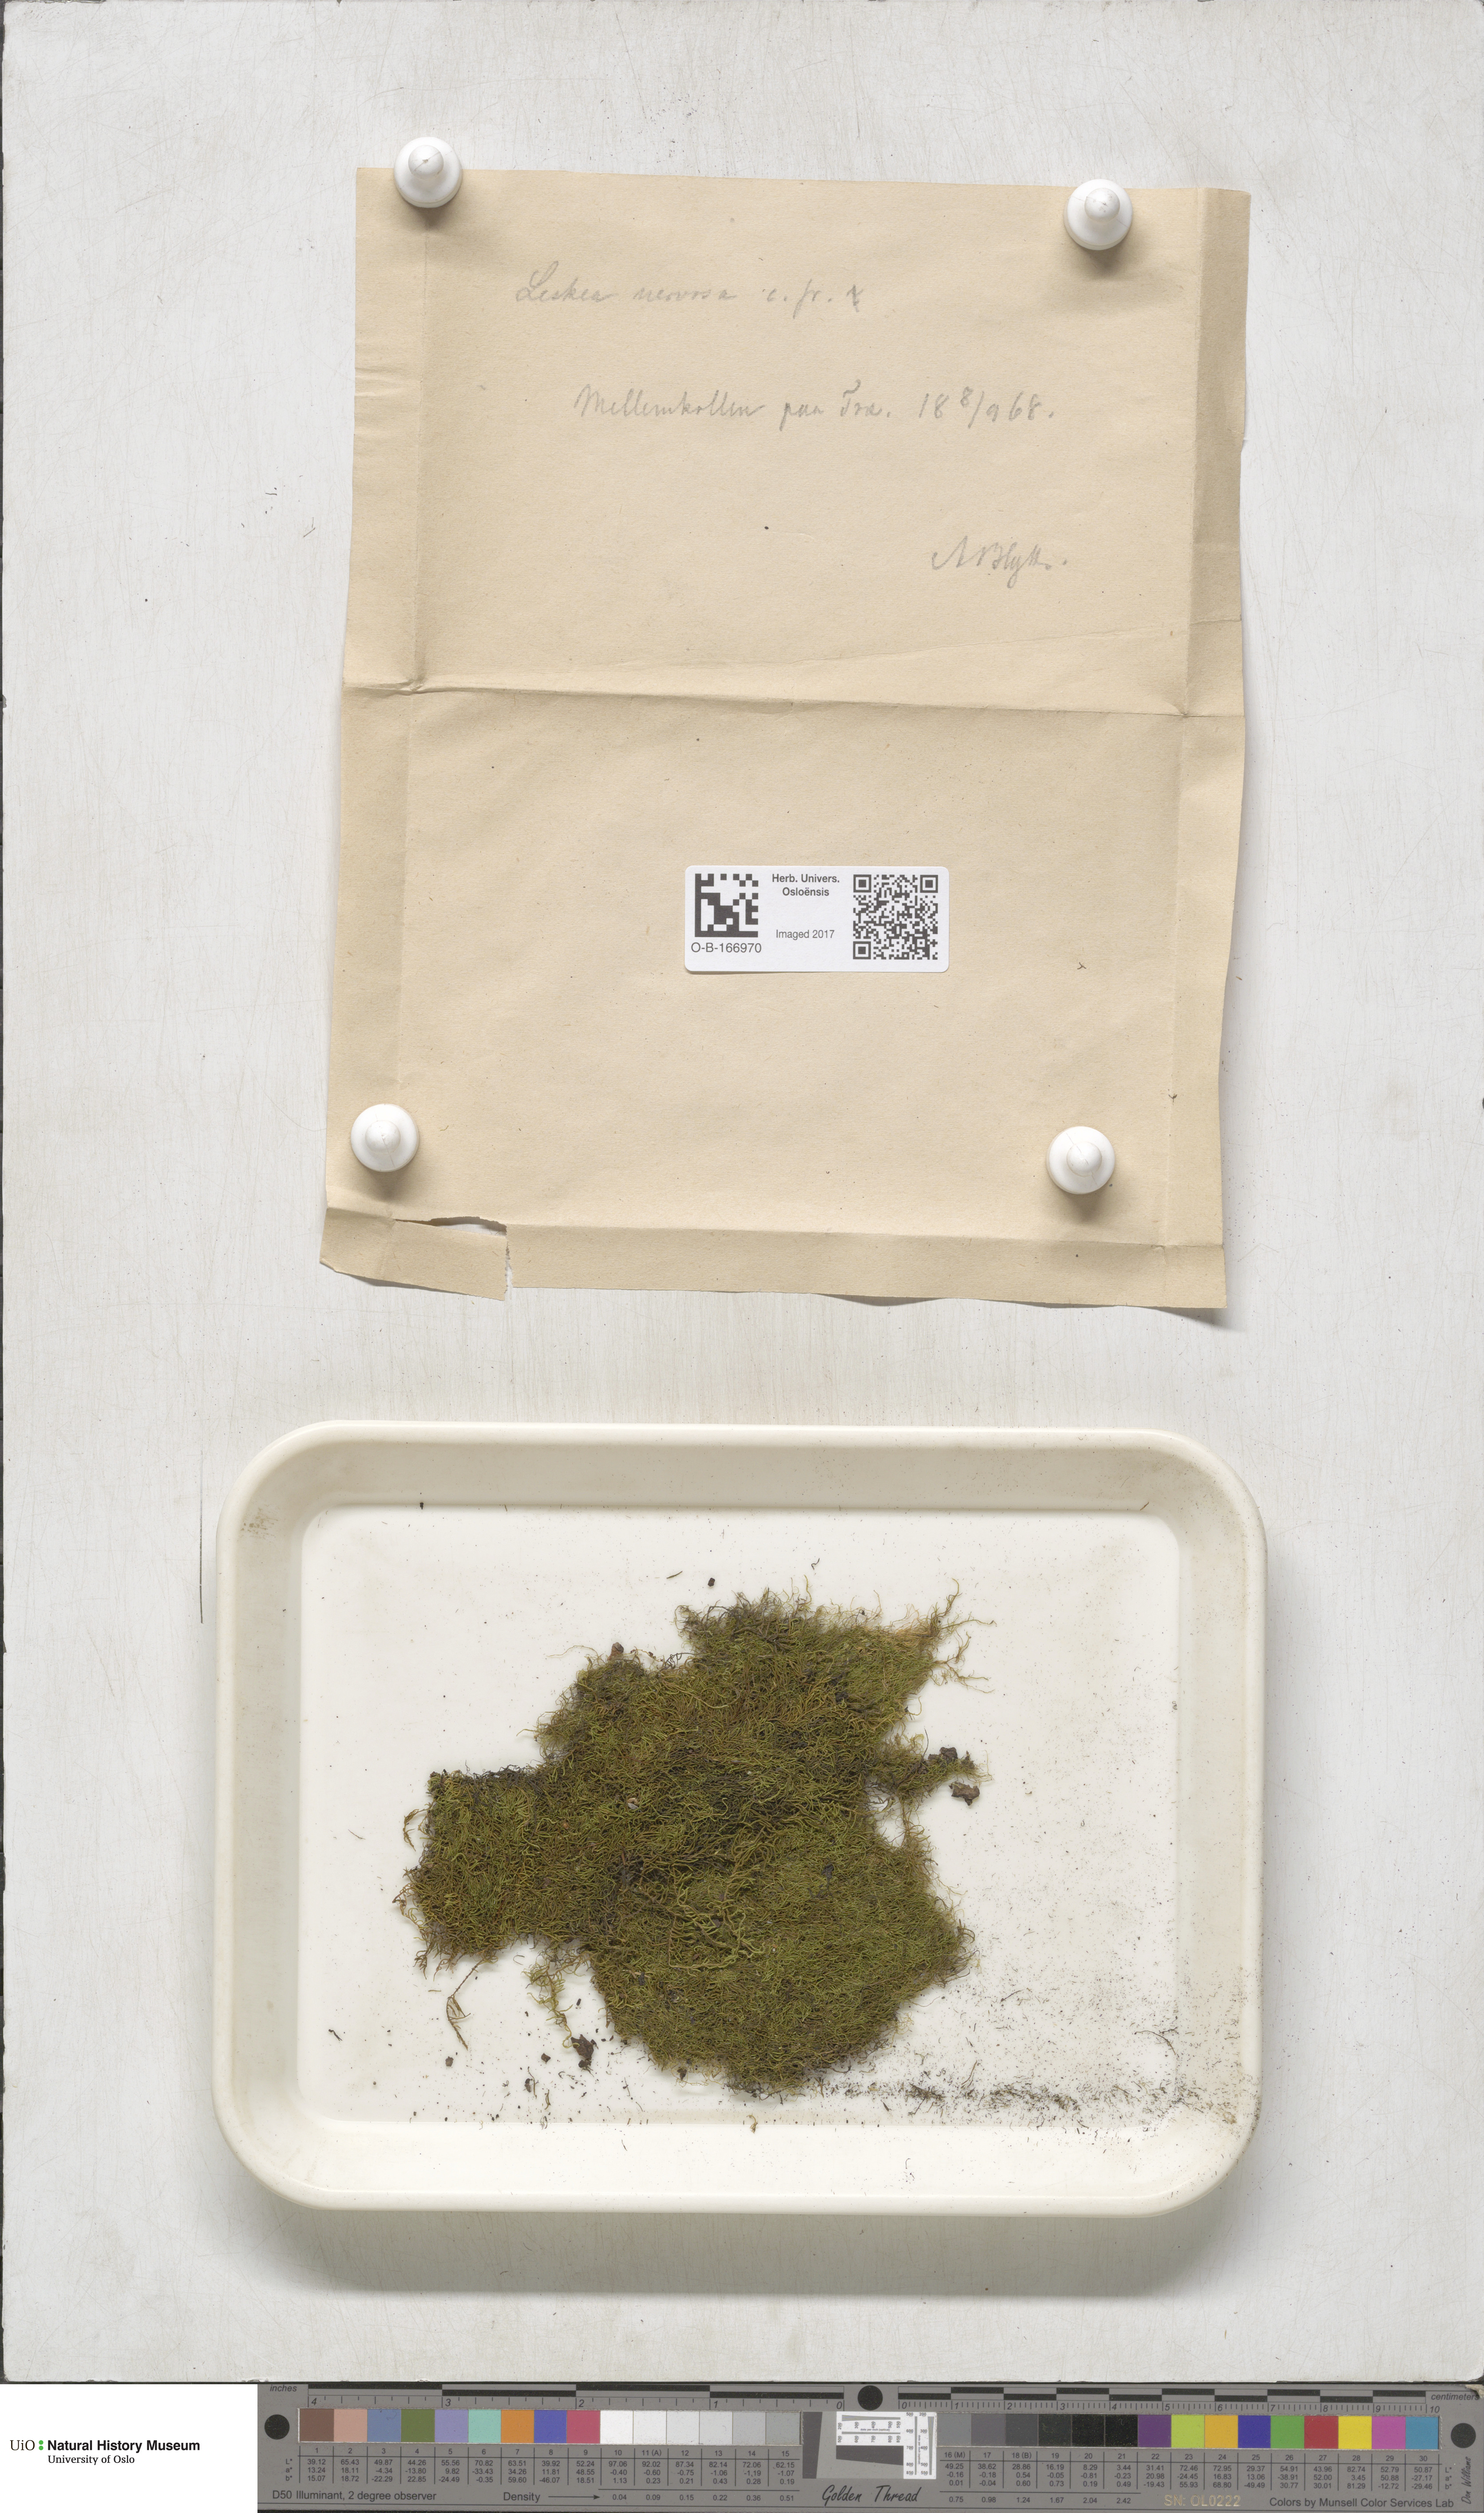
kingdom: Plantae
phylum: Bryophyta
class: Bryopsida
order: Hypnales
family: Pseudoleskeellaceae
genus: Pseudoleskeella
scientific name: Pseudoleskeella nervosa
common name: Nerved leske's moss
